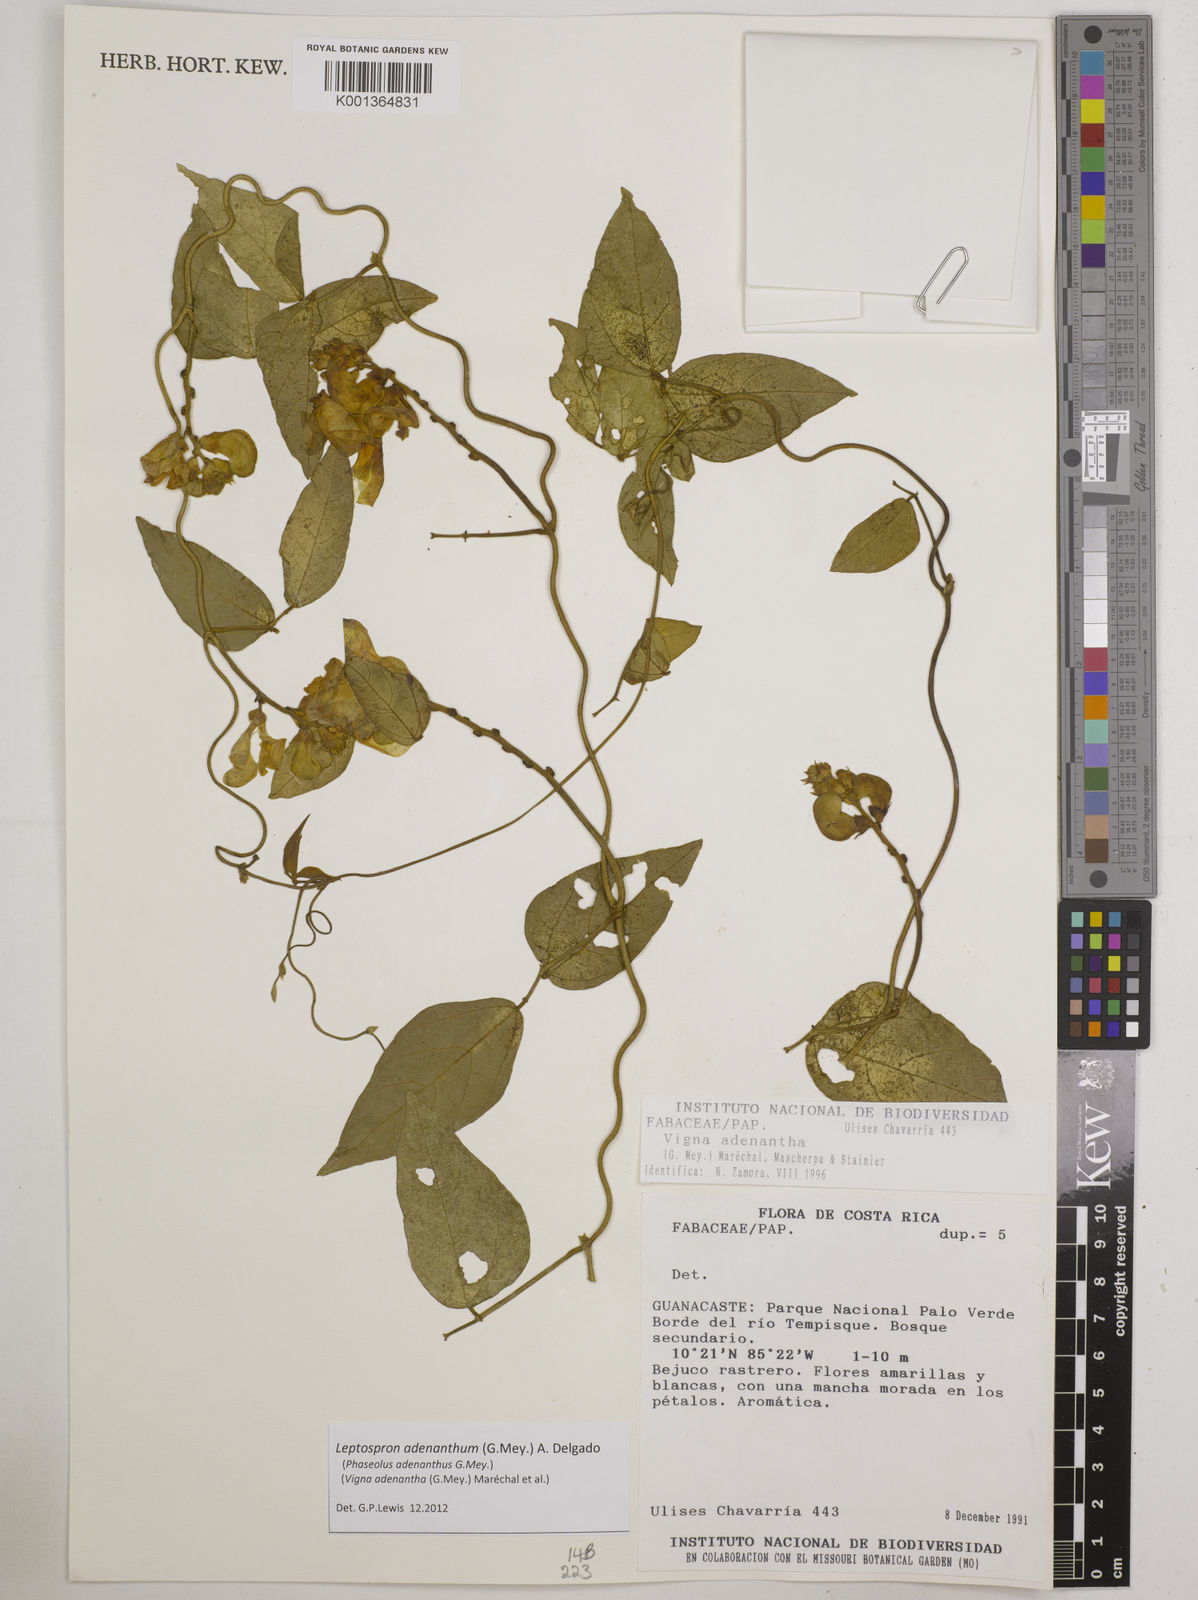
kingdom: Plantae
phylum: Tracheophyta
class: Magnoliopsida
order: Fabales
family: Fabaceae
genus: Leptospron
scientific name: Leptospron adenanthum
